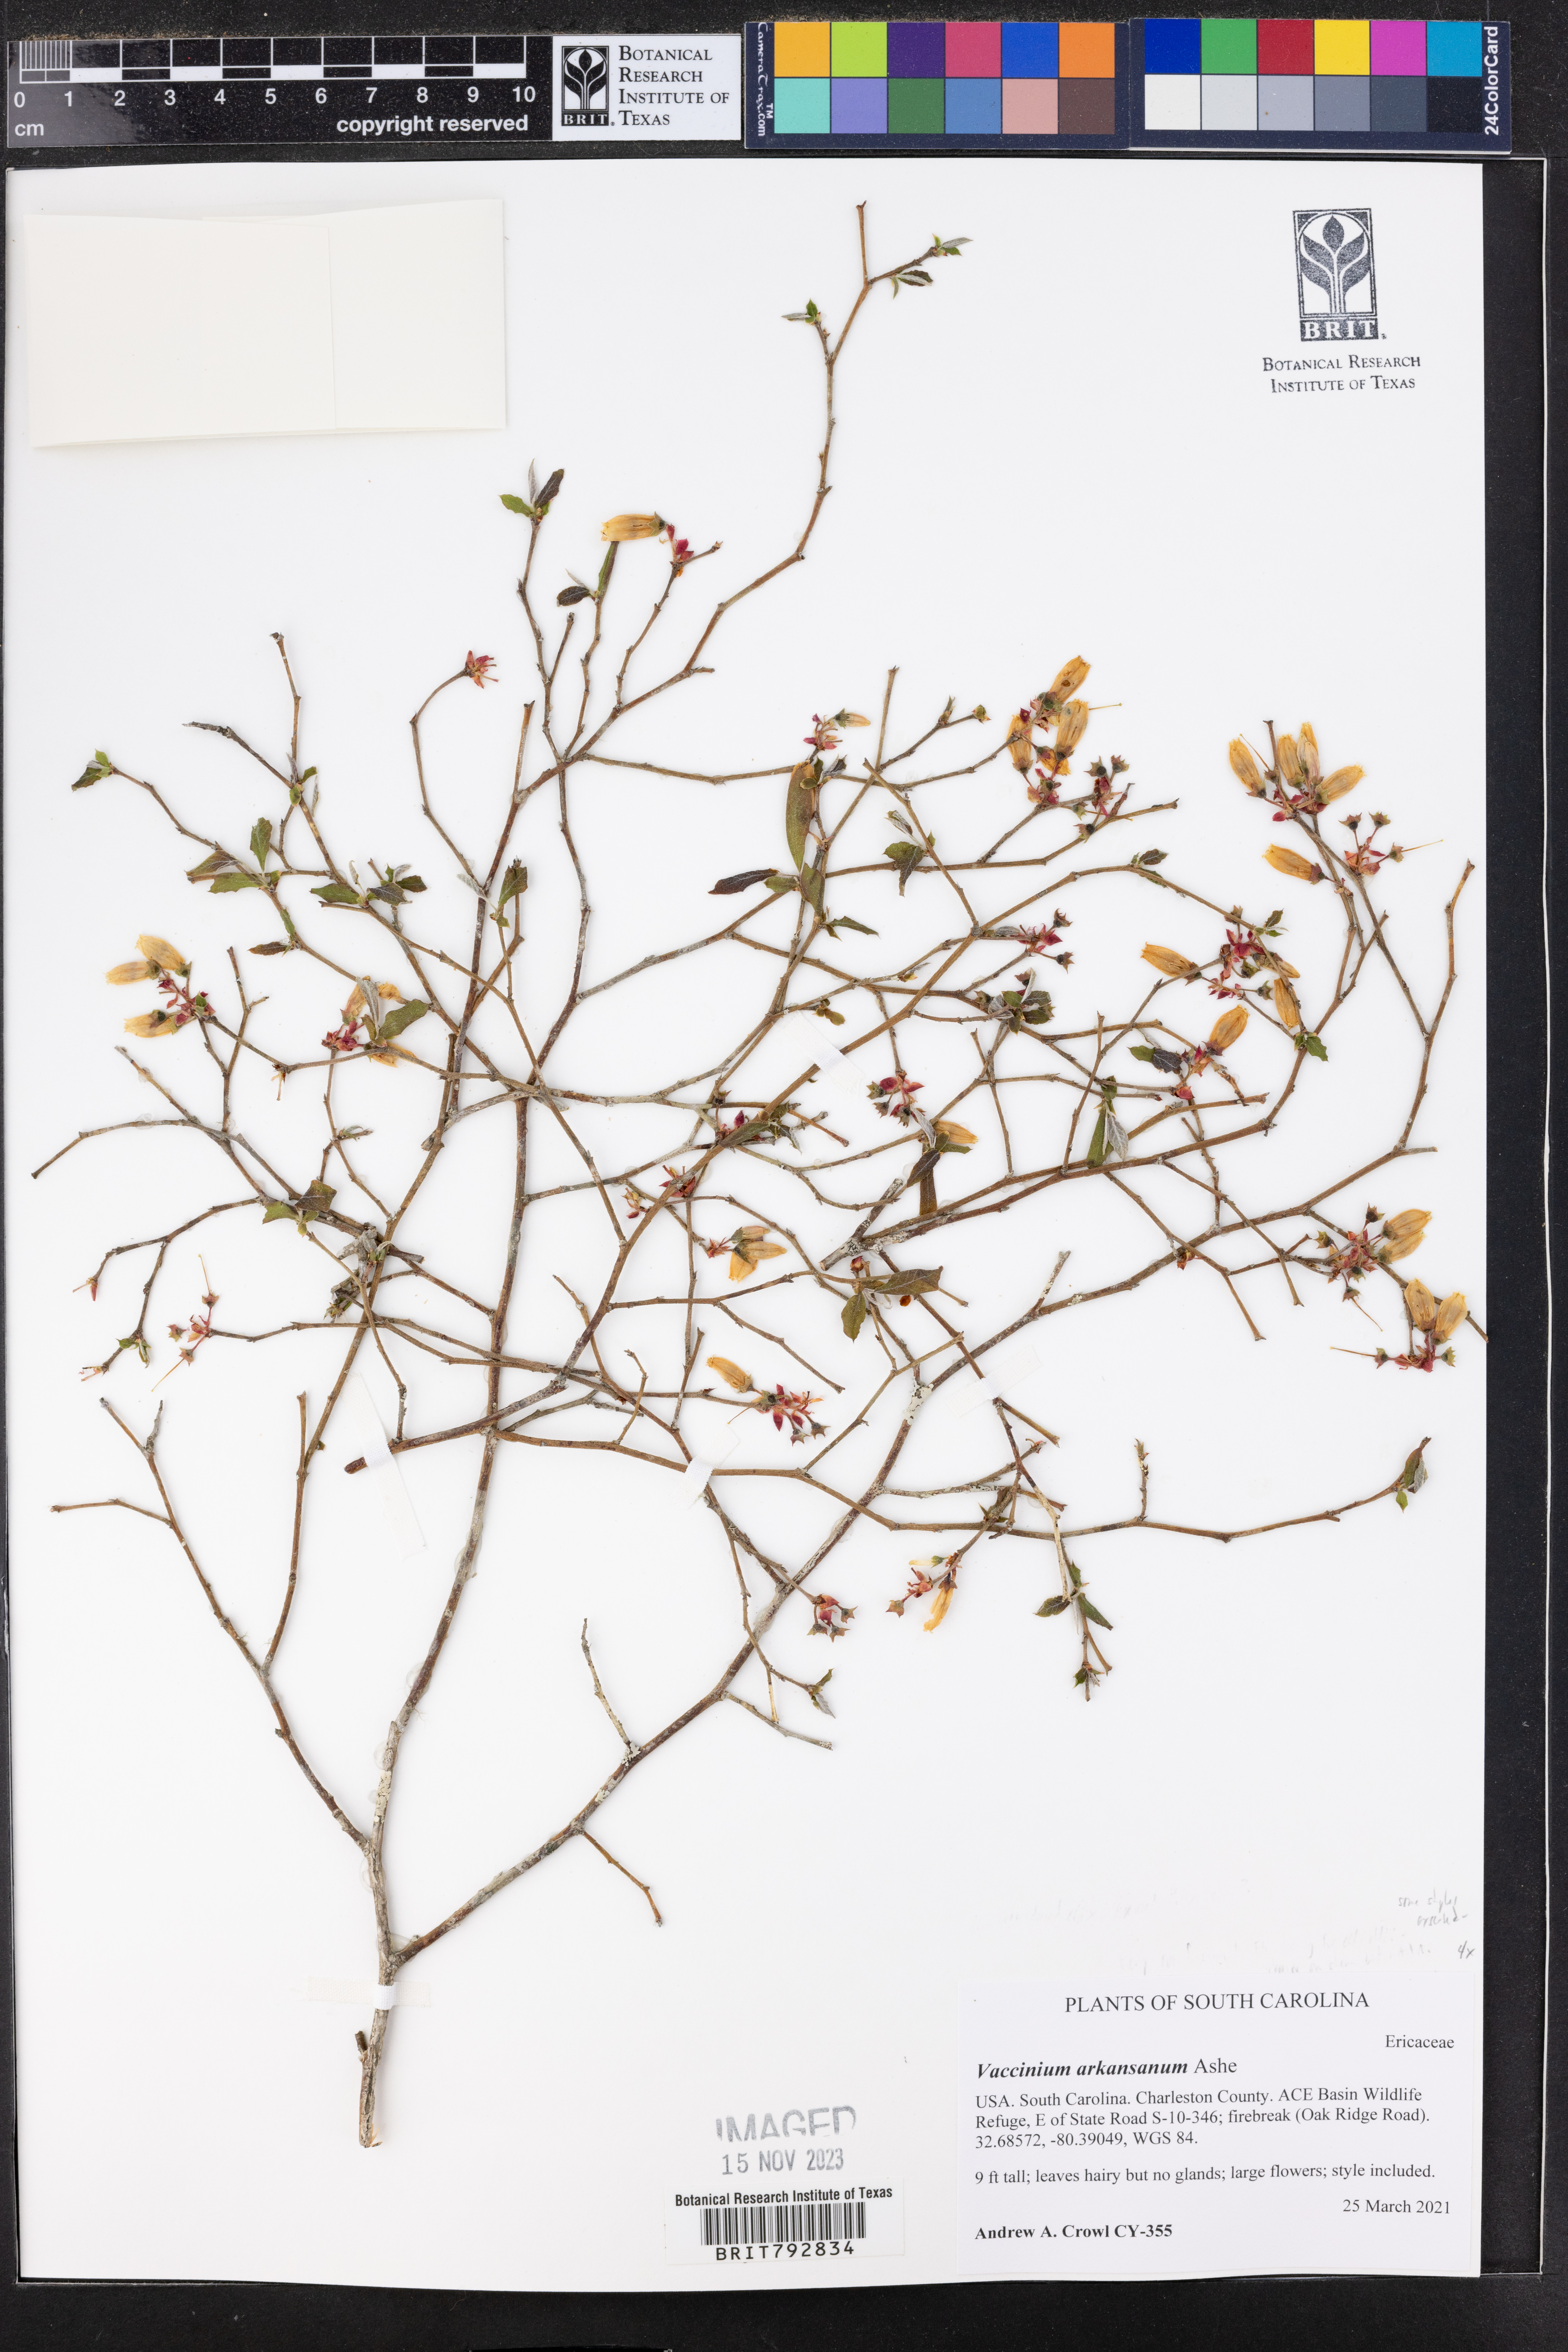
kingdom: Plantae
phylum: Tracheophyta
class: Magnoliopsida
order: Ericales
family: Ericaceae
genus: Vaccinium
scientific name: Vaccinium corymbosum
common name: Blueberry
